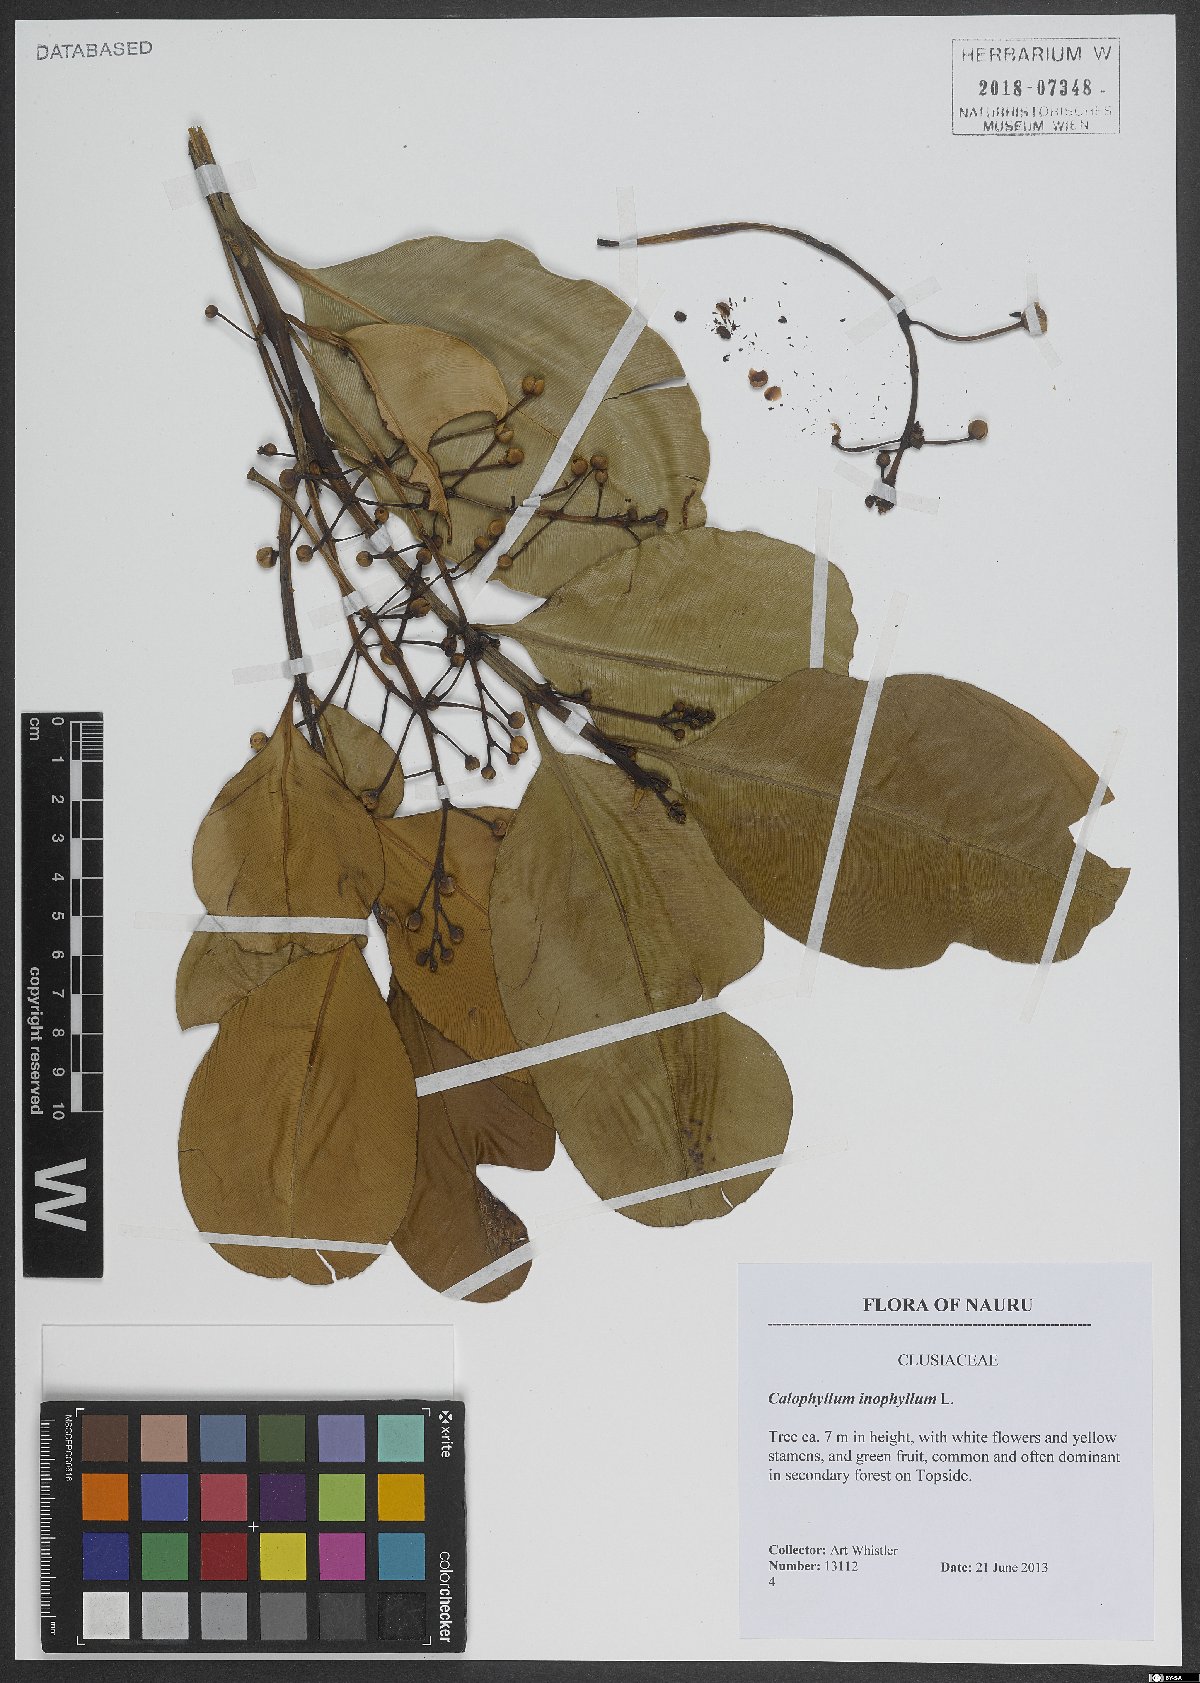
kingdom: Plantae
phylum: Tracheophyta
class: Magnoliopsida
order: Malpighiales
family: Calophyllaceae
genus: Calophyllum
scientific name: Calophyllum inophyllum
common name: Alexandrian laurel
